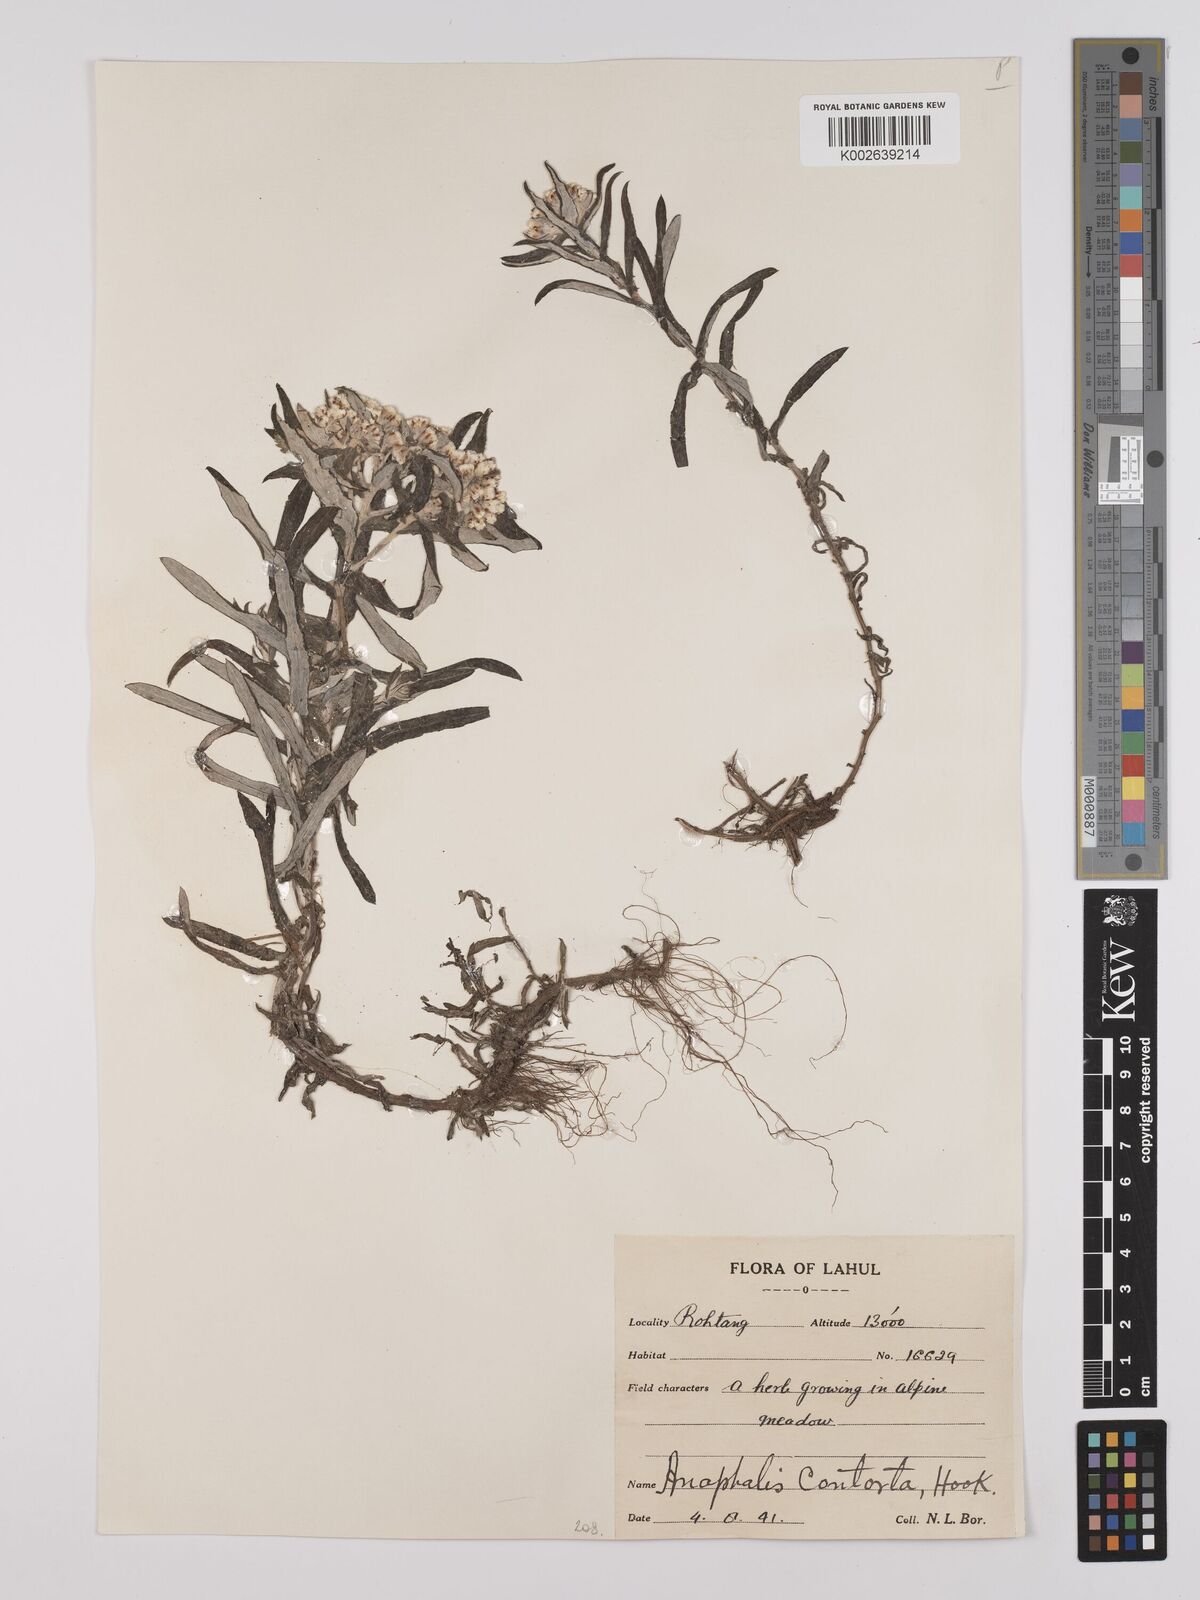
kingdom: Plantae
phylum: Tracheophyta
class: Magnoliopsida
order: Asterales
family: Asteraceae
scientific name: Asteraceae
